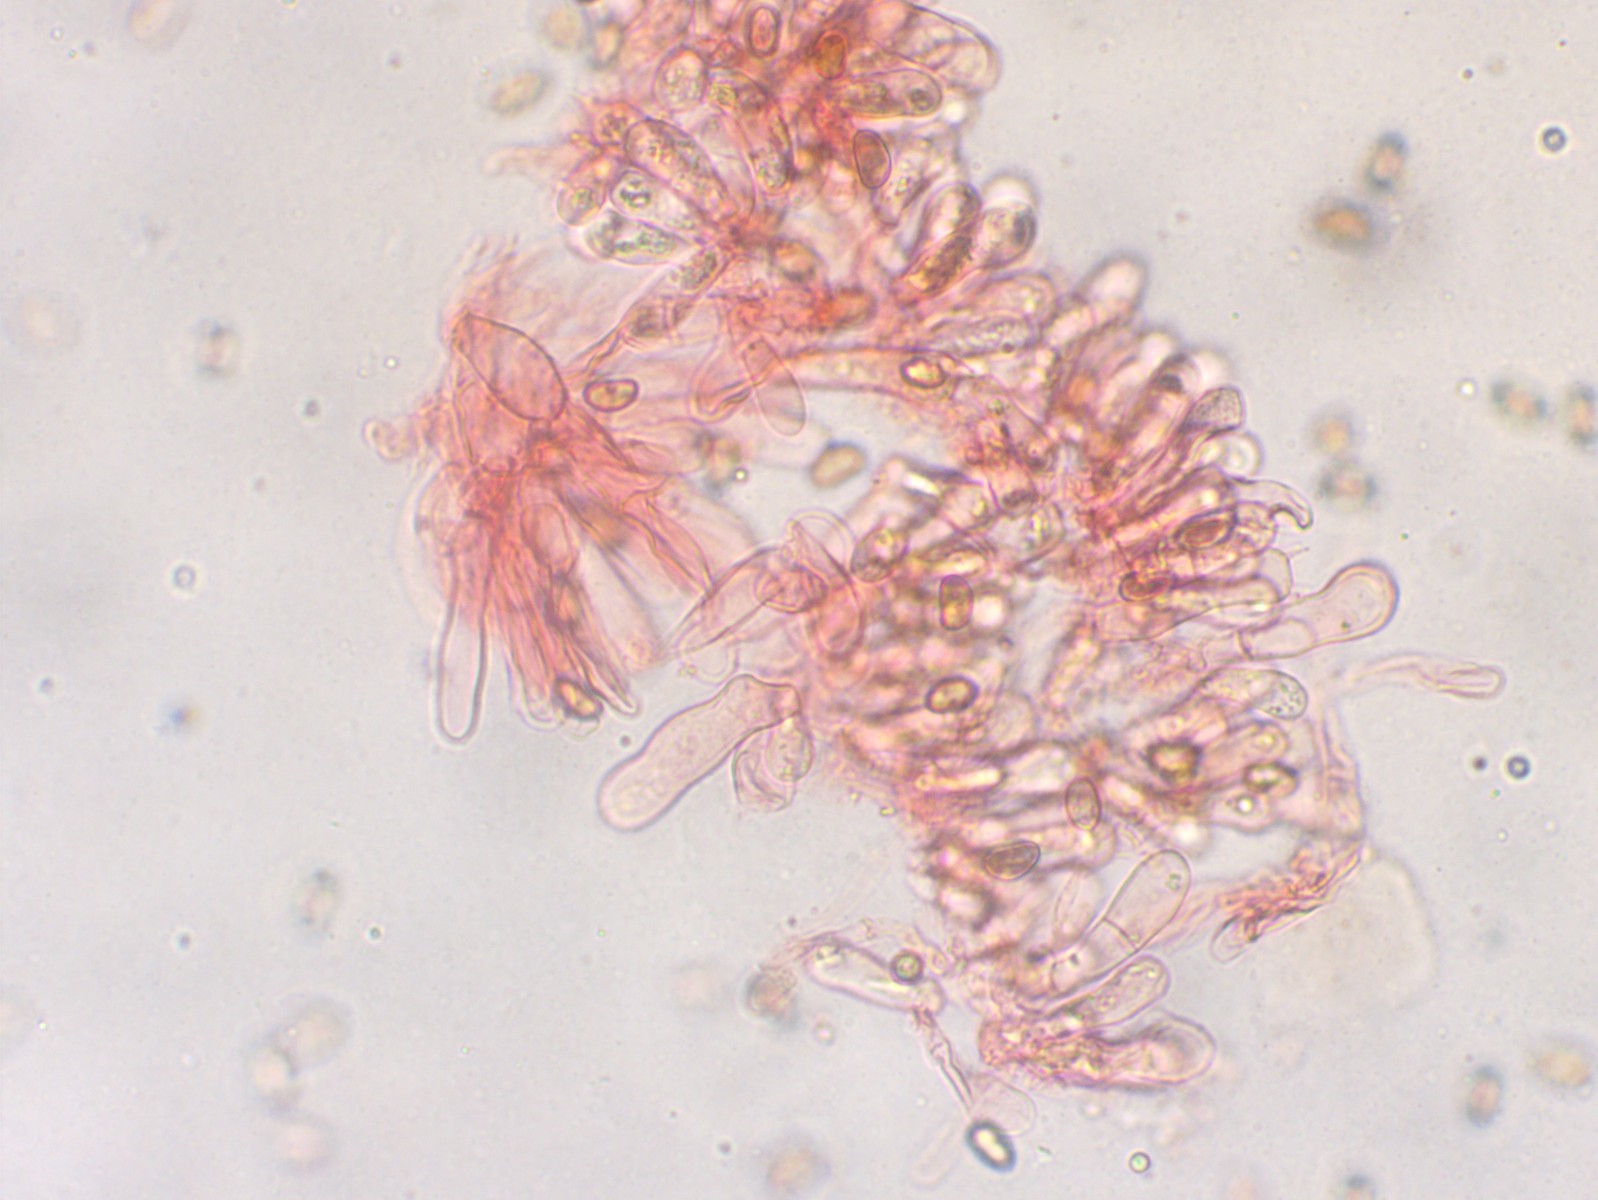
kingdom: Fungi
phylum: Basidiomycota
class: Agaricomycetes
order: Agaricales
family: Inocybaceae
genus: Inosperma
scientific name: Inosperma adaequatum
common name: vinrød trævlhat
